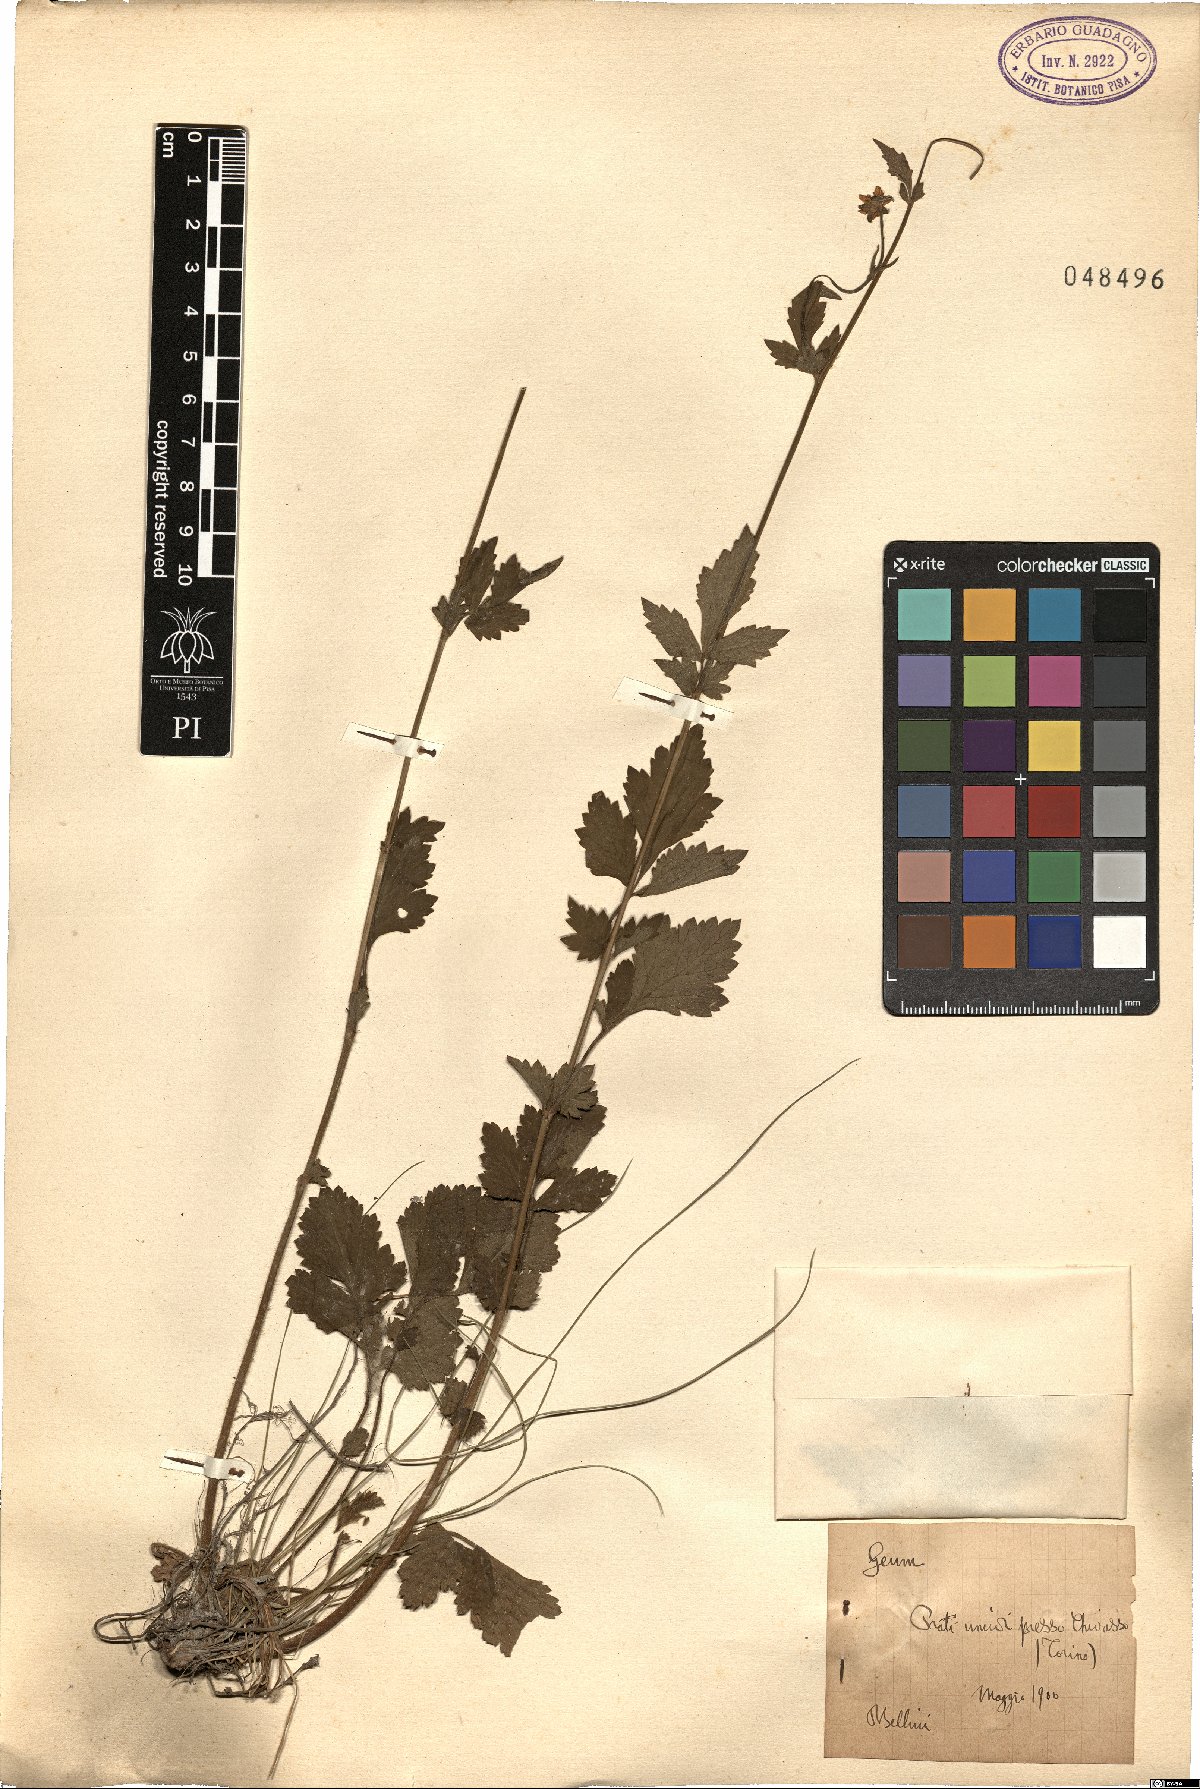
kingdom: Plantae
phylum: Tracheophyta
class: Magnoliopsida
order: Rosales
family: Rosaceae
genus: Geum
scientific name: Geum
